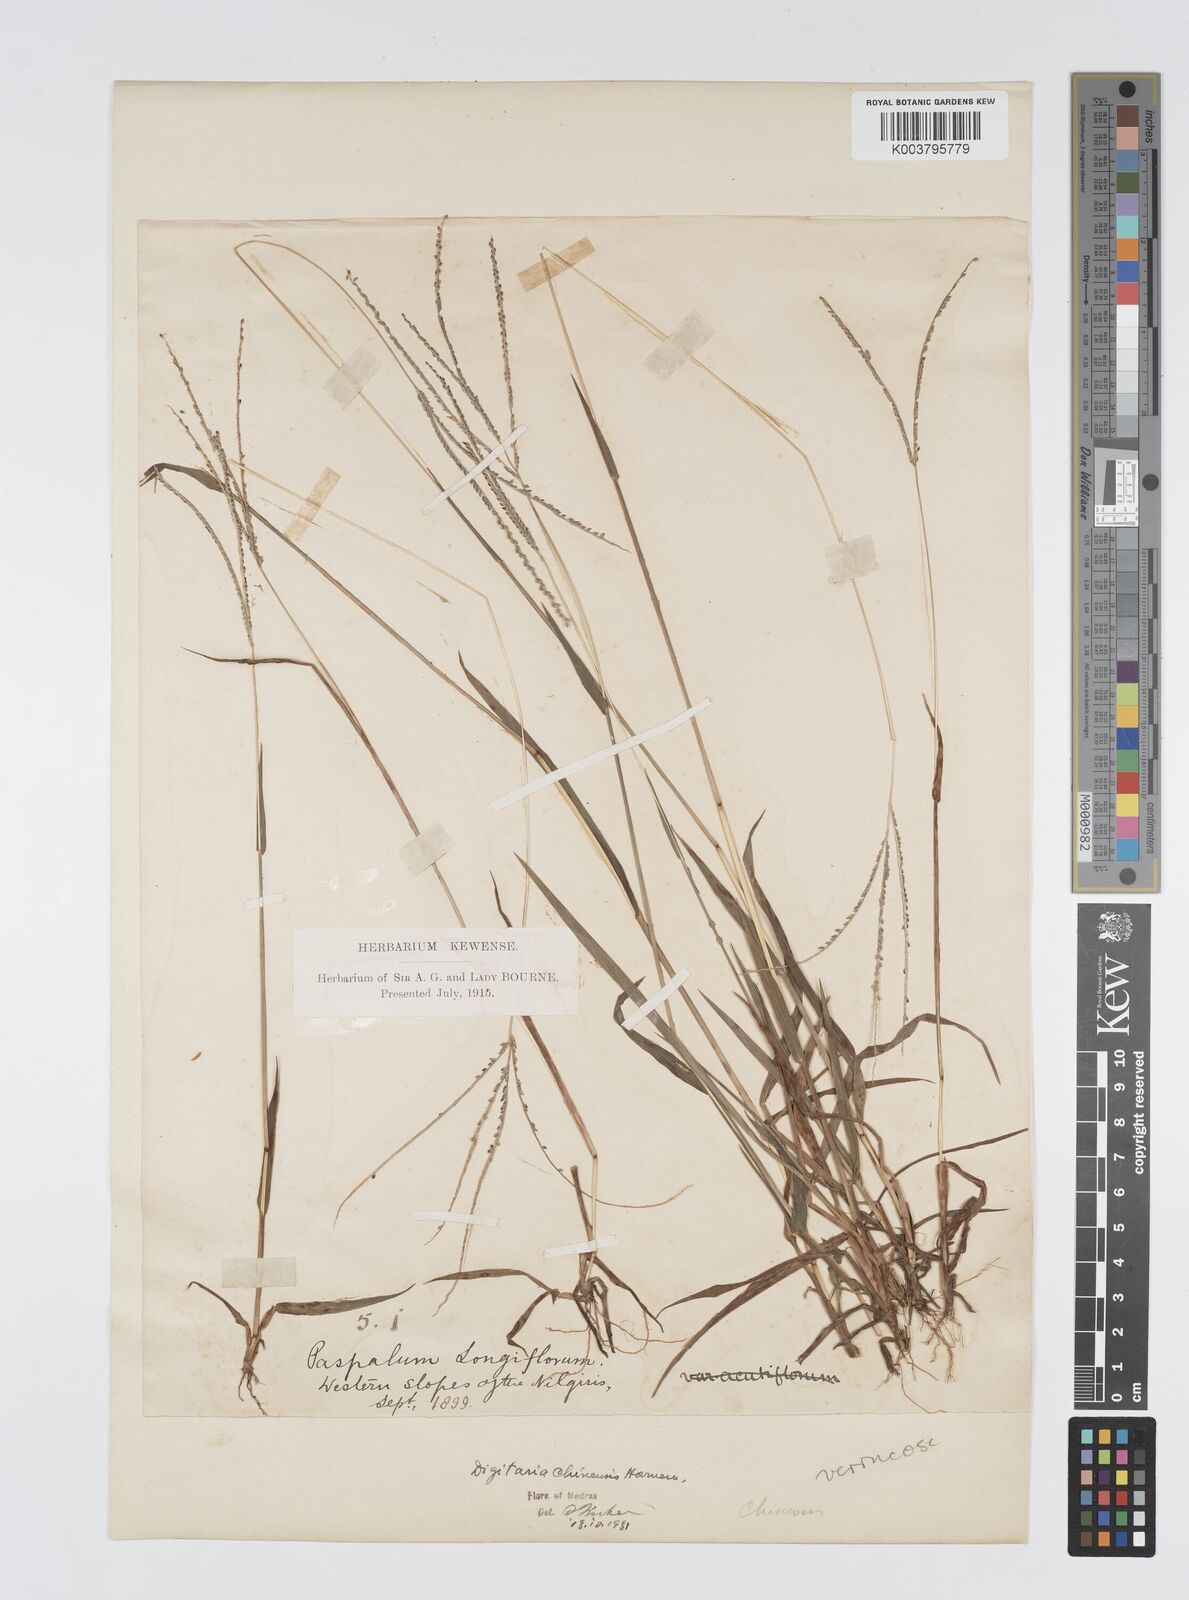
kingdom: Plantae
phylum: Tracheophyta
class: Liliopsida
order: Poales
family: Poaceae
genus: Digitaria
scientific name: Digitaria violascens
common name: Violet crabgrass
